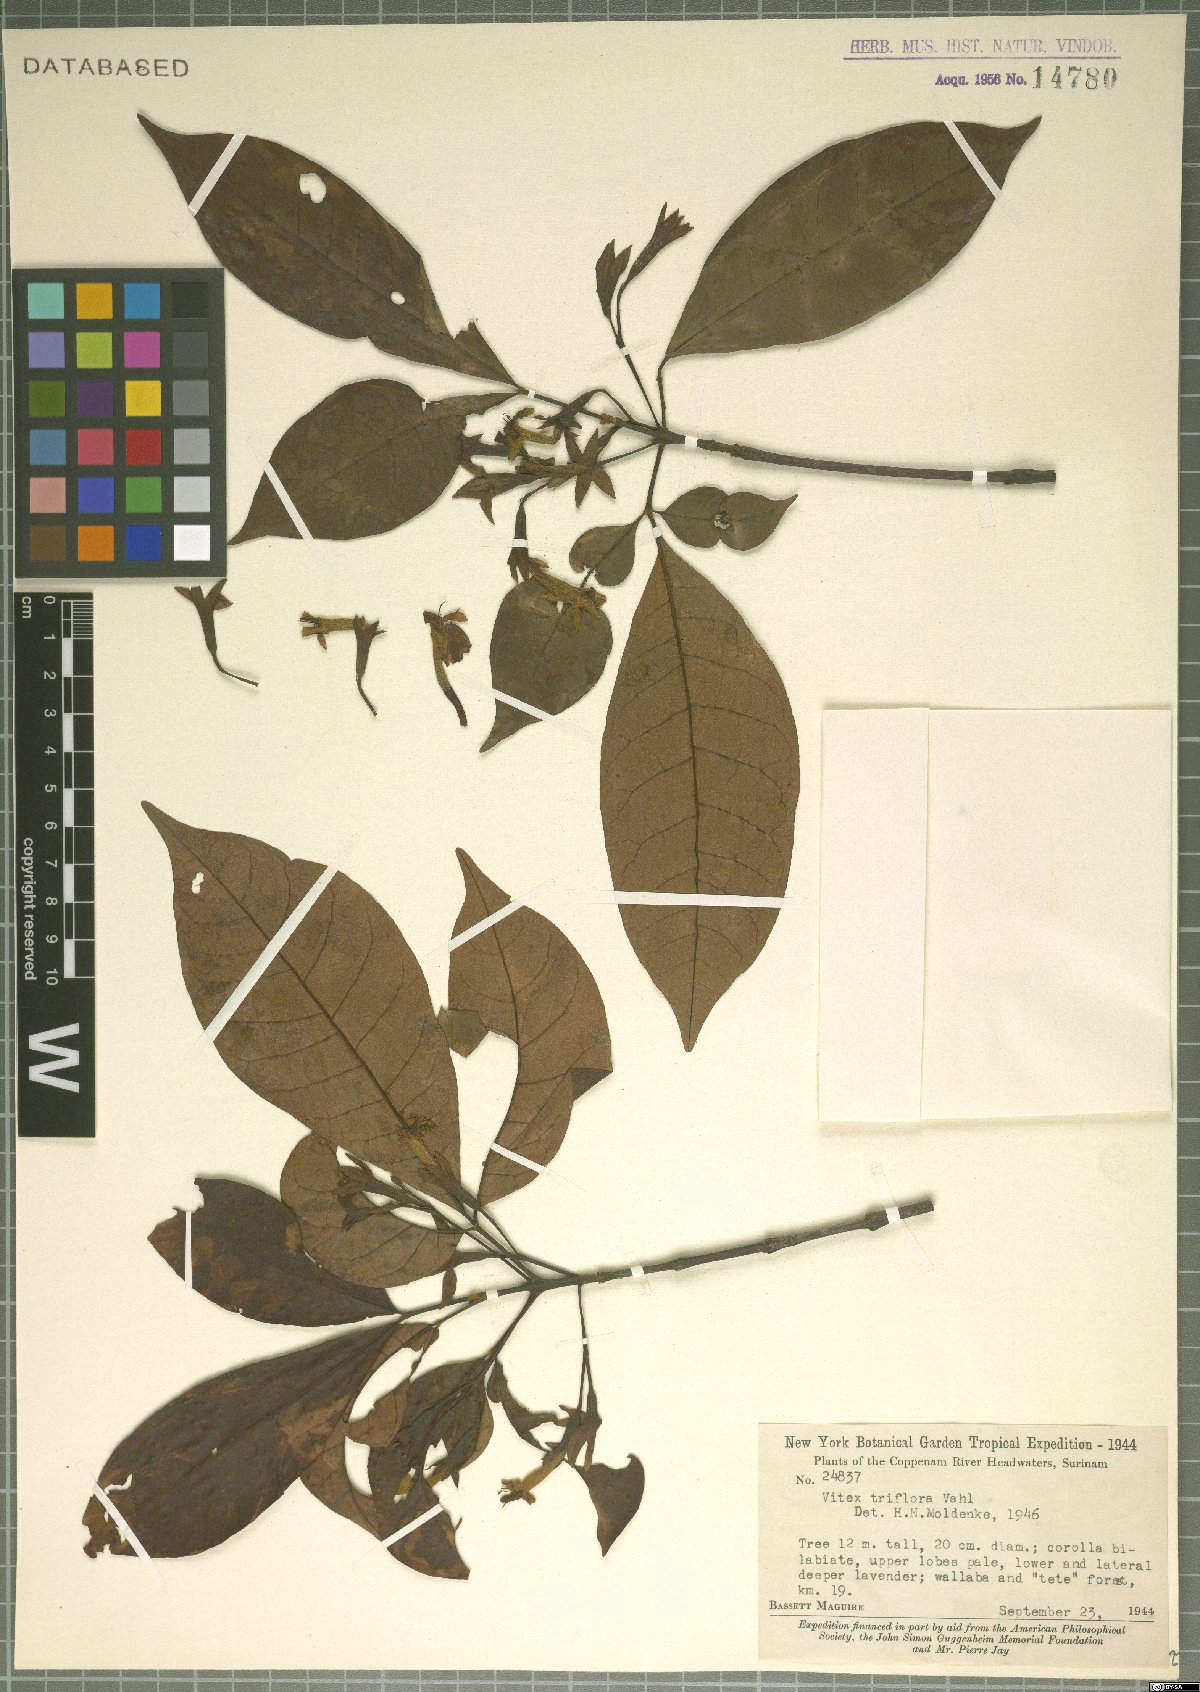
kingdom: Plantae
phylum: Tracheophyta
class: Magnoliopsida
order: Lamiales
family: Lamiaceae
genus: Vitex
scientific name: Vitex triflora
